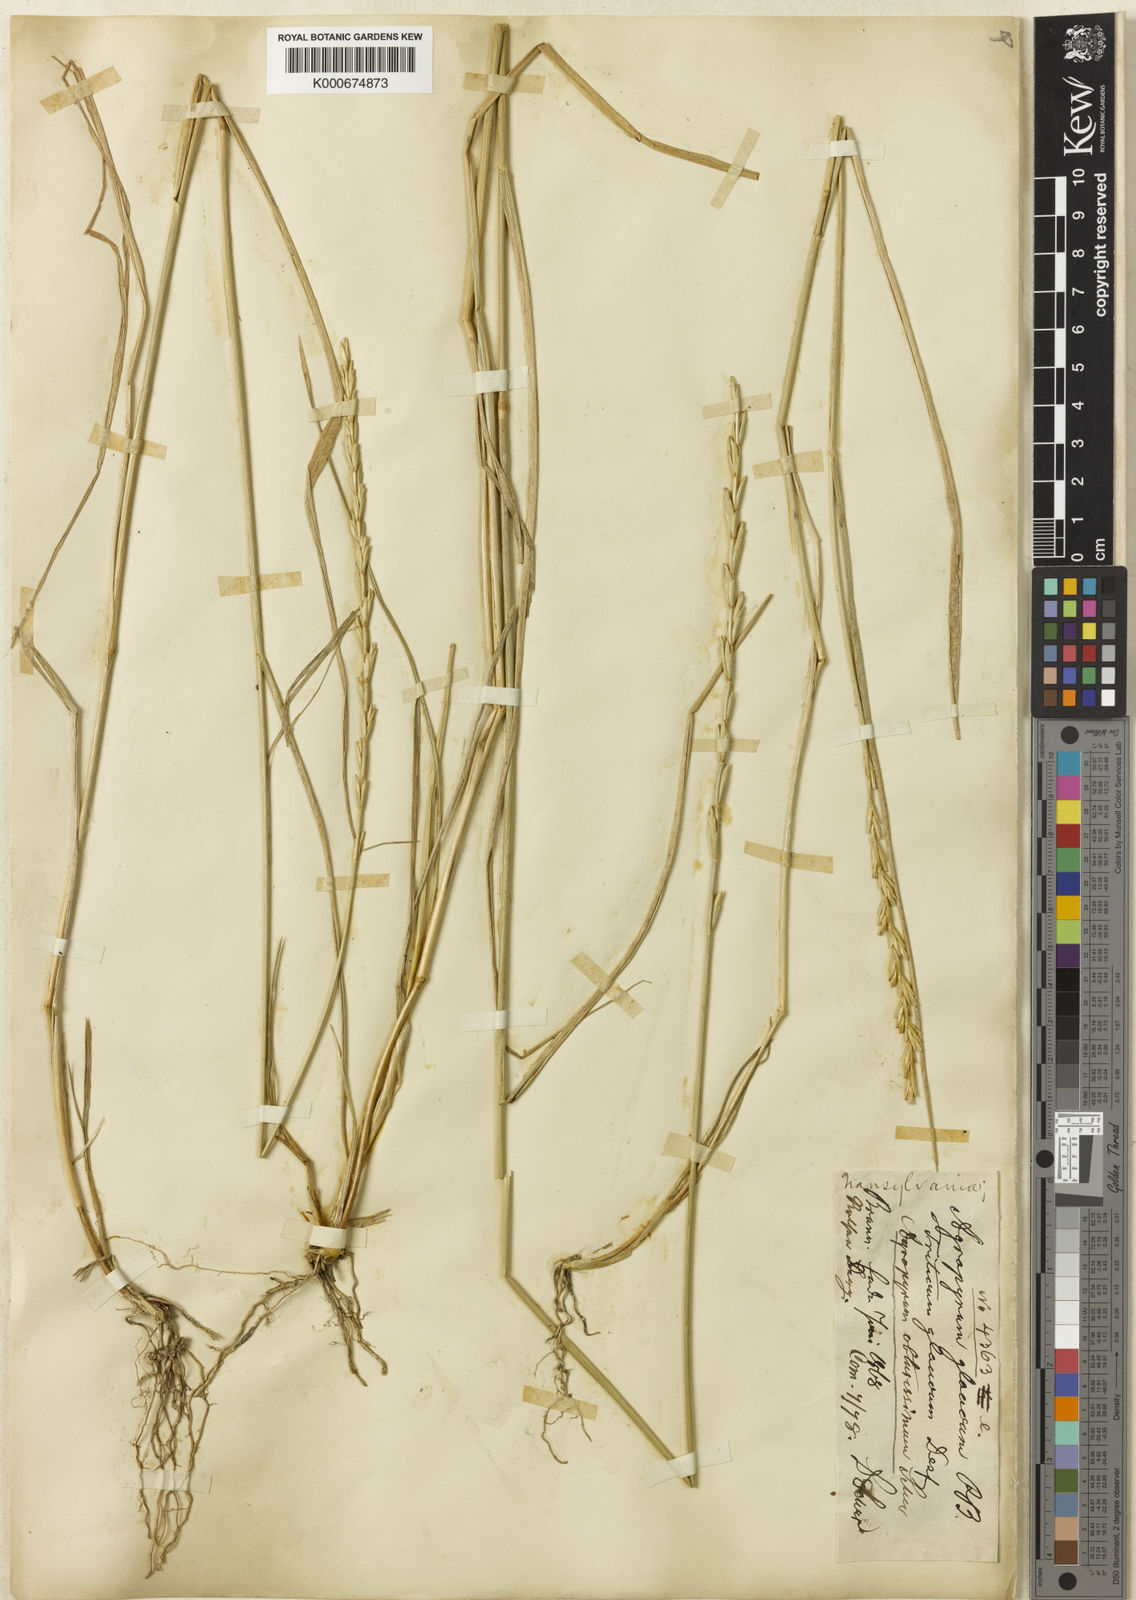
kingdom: Plantae
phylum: Tracheophyta
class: Liliopsida
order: Poales
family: Poaceae
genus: Thinopyrum
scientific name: Thinopyrum intermedium
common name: Intermediate wheatgrass
